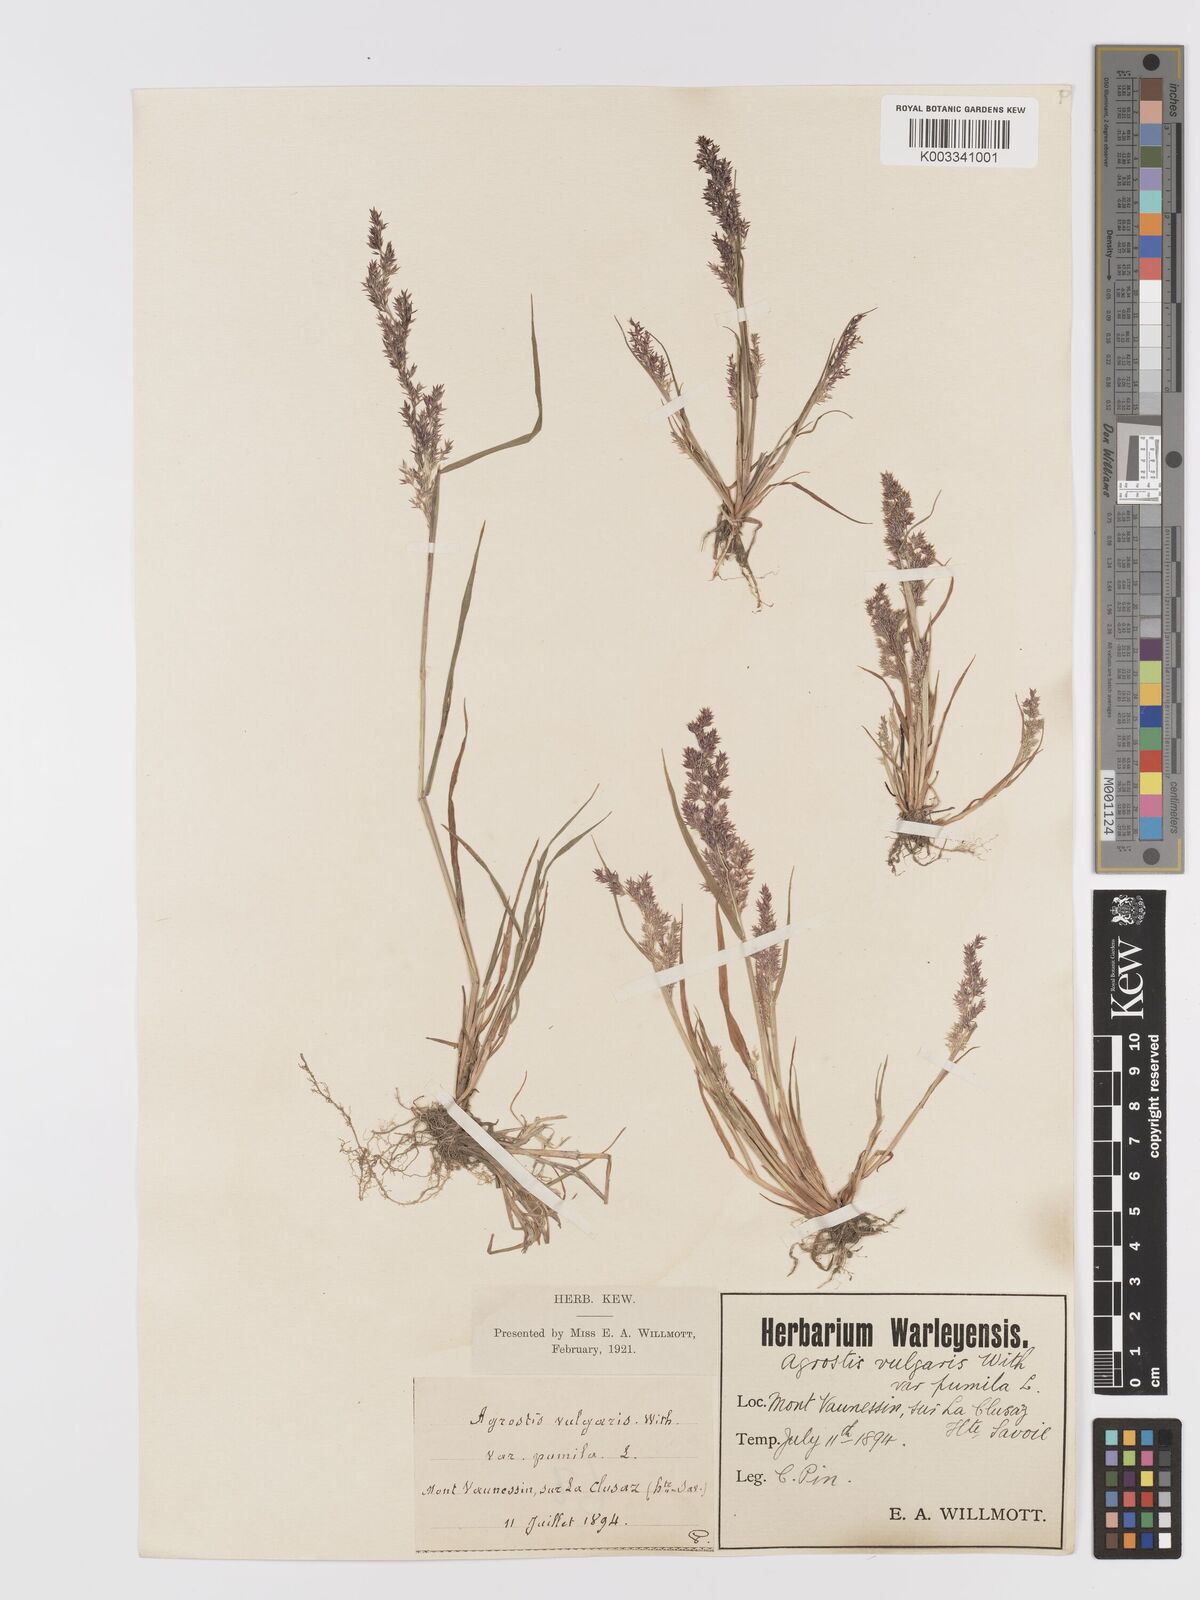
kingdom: Plantae
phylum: Tracheophyta
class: Liliopsida
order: Poales
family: Poaceae
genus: Agrostis
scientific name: Agrostis capillaris
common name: Colonial bentgrass
